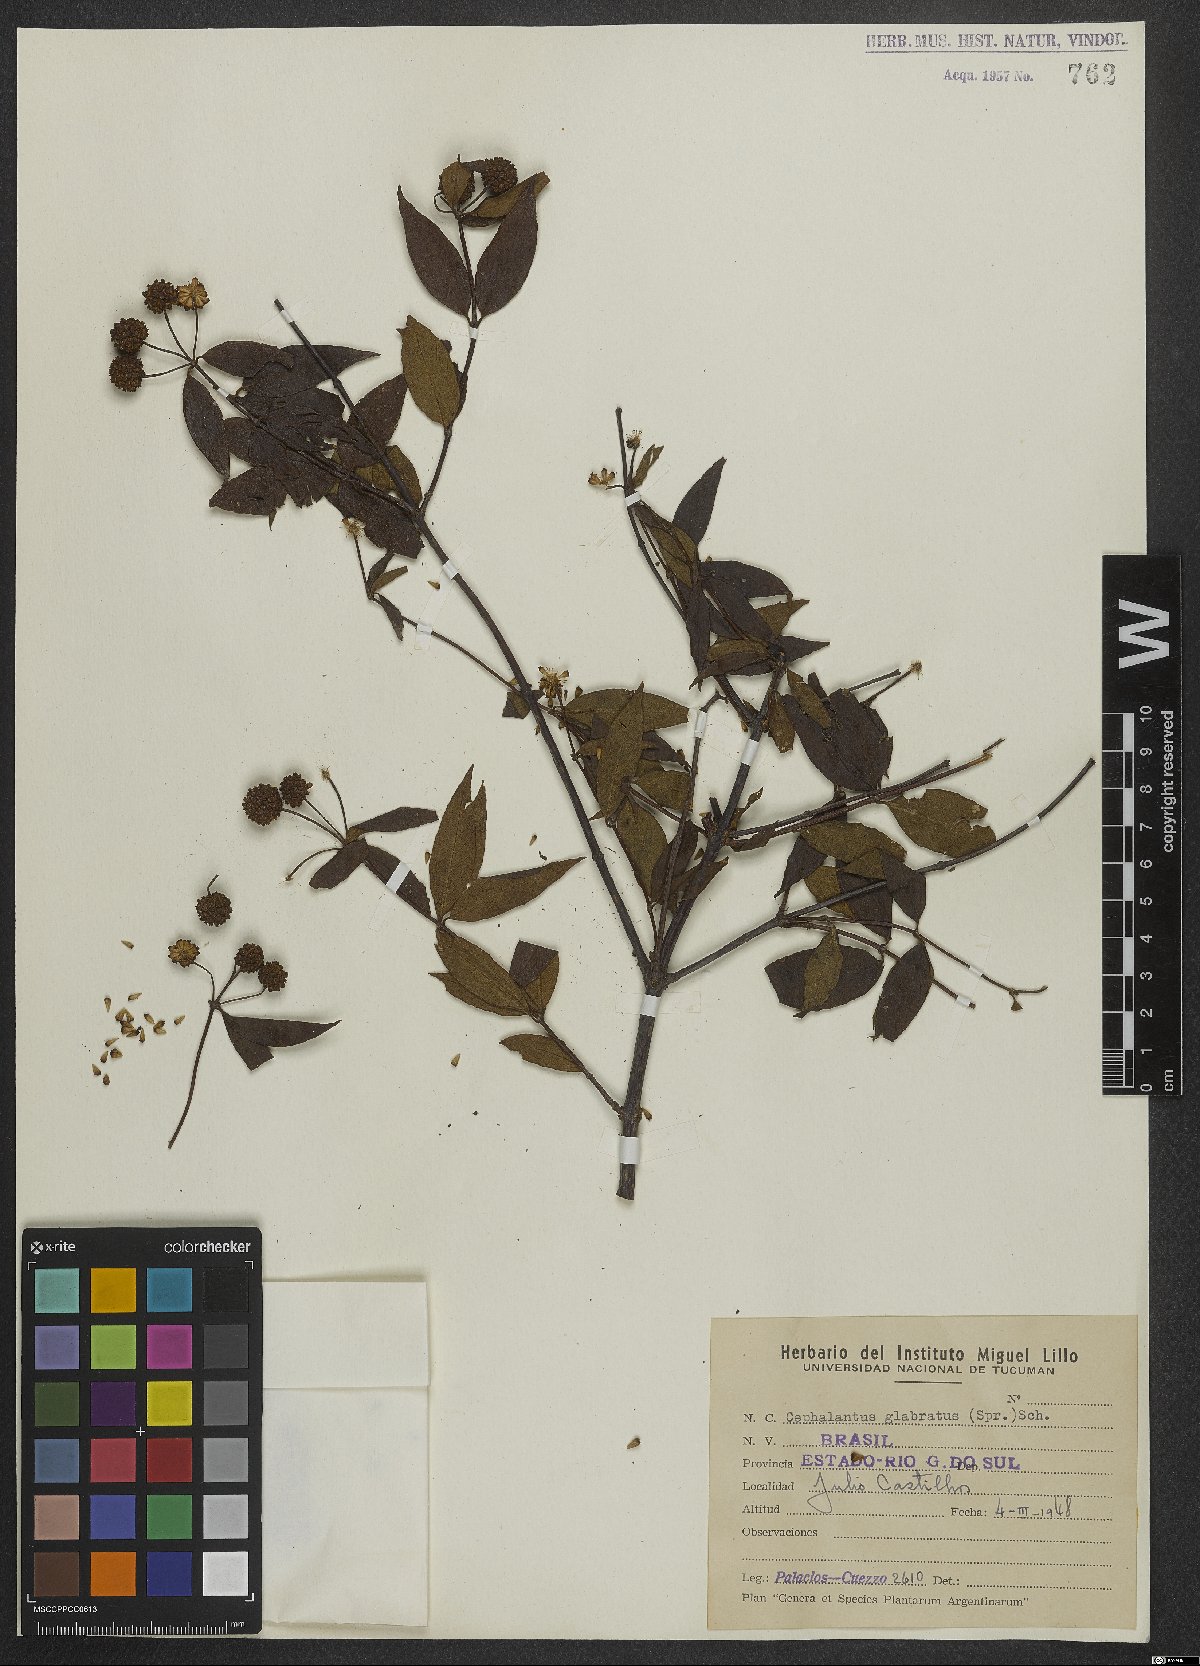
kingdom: Plantae
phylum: Tracheophyta
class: Magnoliopsida
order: Gentianales
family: Rubiaceae
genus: Cephalanthus
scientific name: Cephalanthus glabratus
